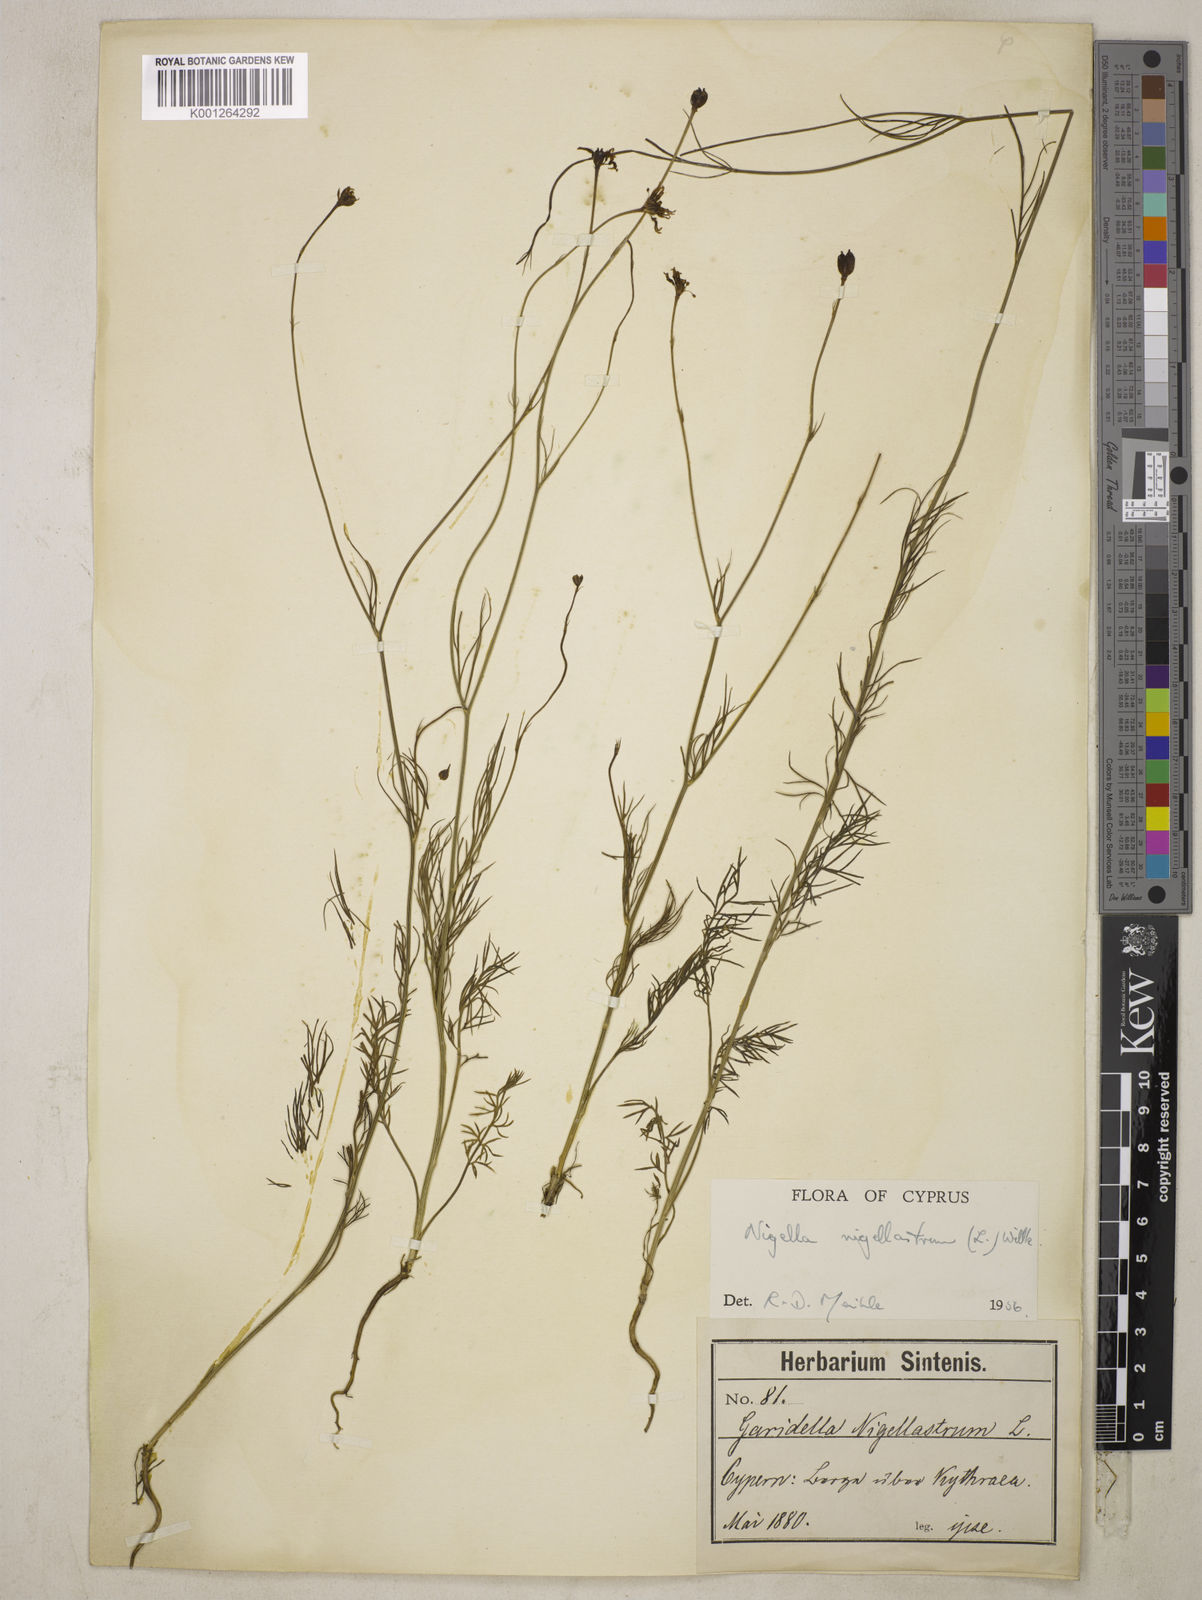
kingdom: Plantae
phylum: Tracheophyta
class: Magnoliopsida
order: Ranunculales
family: Ranunculaceae
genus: Garidella
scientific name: Garidella nigellastrum
